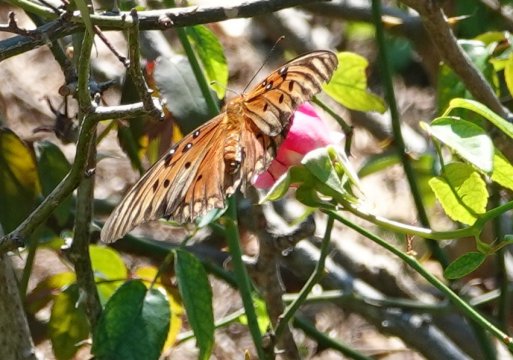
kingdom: Animalia
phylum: Arthropoda
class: Insecta
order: Lepidoptera
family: Nymphalidae
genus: Dione
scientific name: Dione vanillae
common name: Gulf Fritillary
